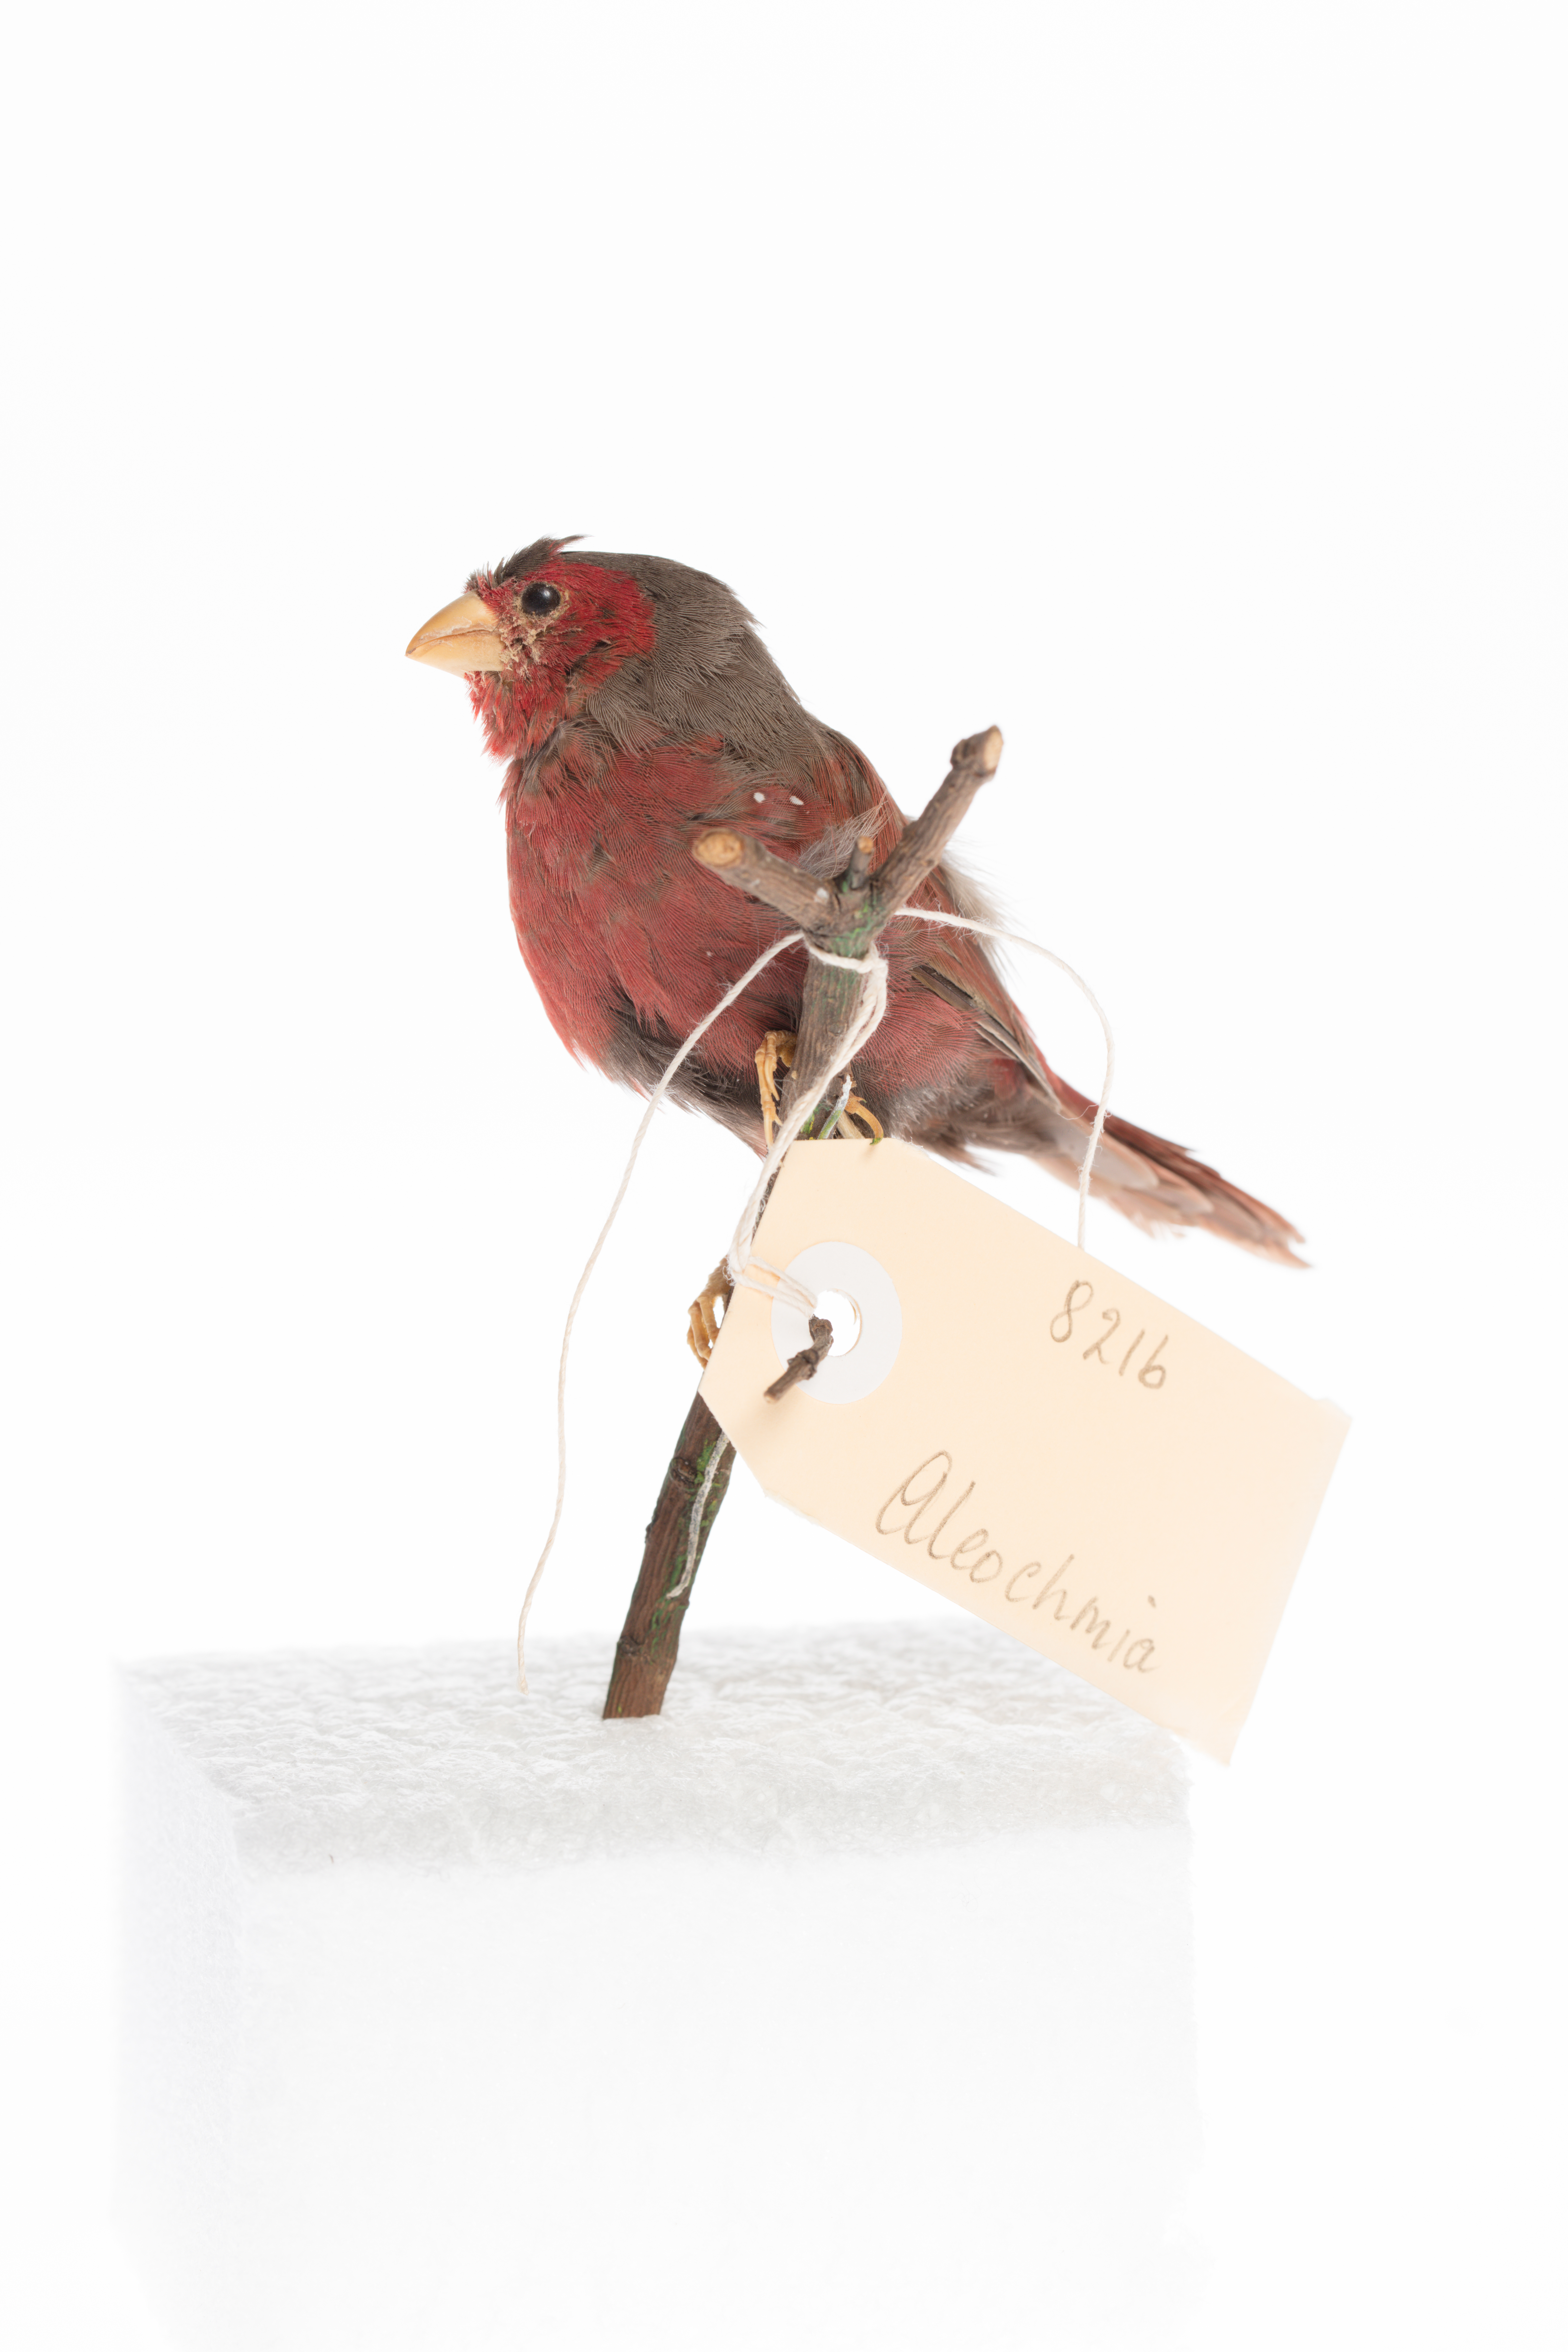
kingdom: Animalia
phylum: Chordata
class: Aves
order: Passeriformes
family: Estrildidae
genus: Neochmia
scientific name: Neochmia phaeton
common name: Crimson finch
